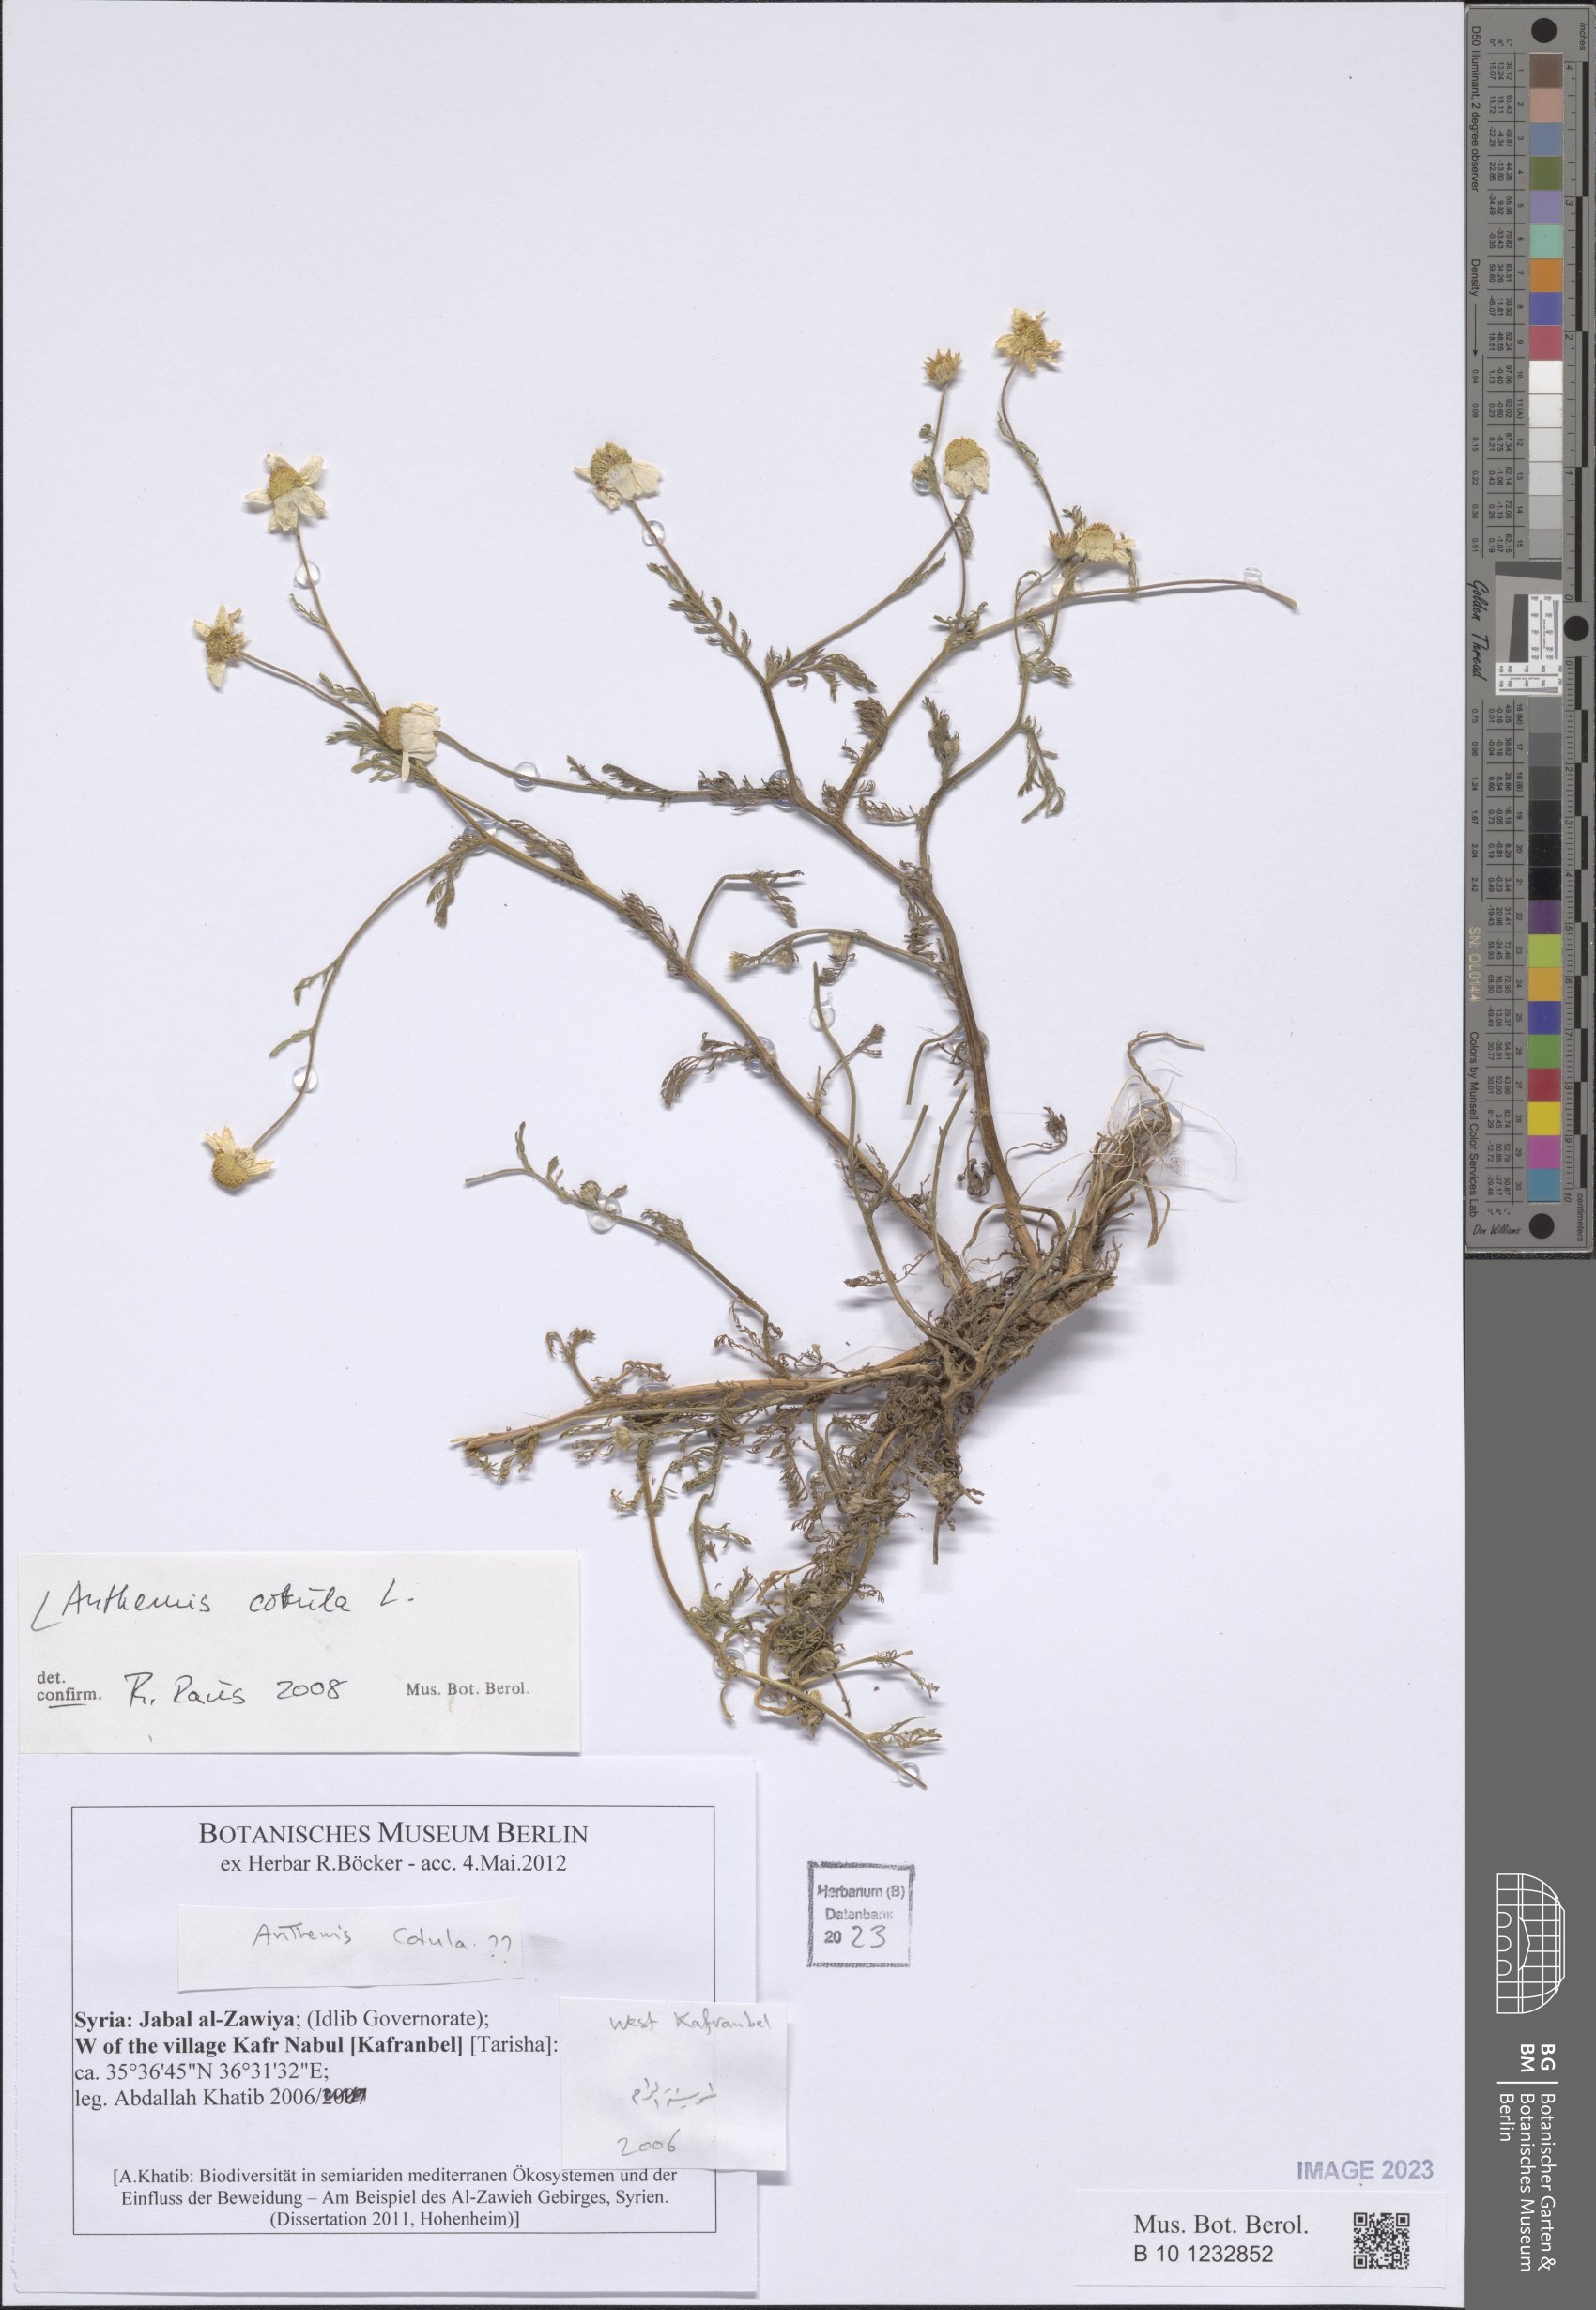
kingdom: Plantae
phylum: Tracheophyta
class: Magnoliopsida
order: Asterales
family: Asteraceae
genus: Anthemis
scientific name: Anthemis cotula
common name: Stinking chamomile
